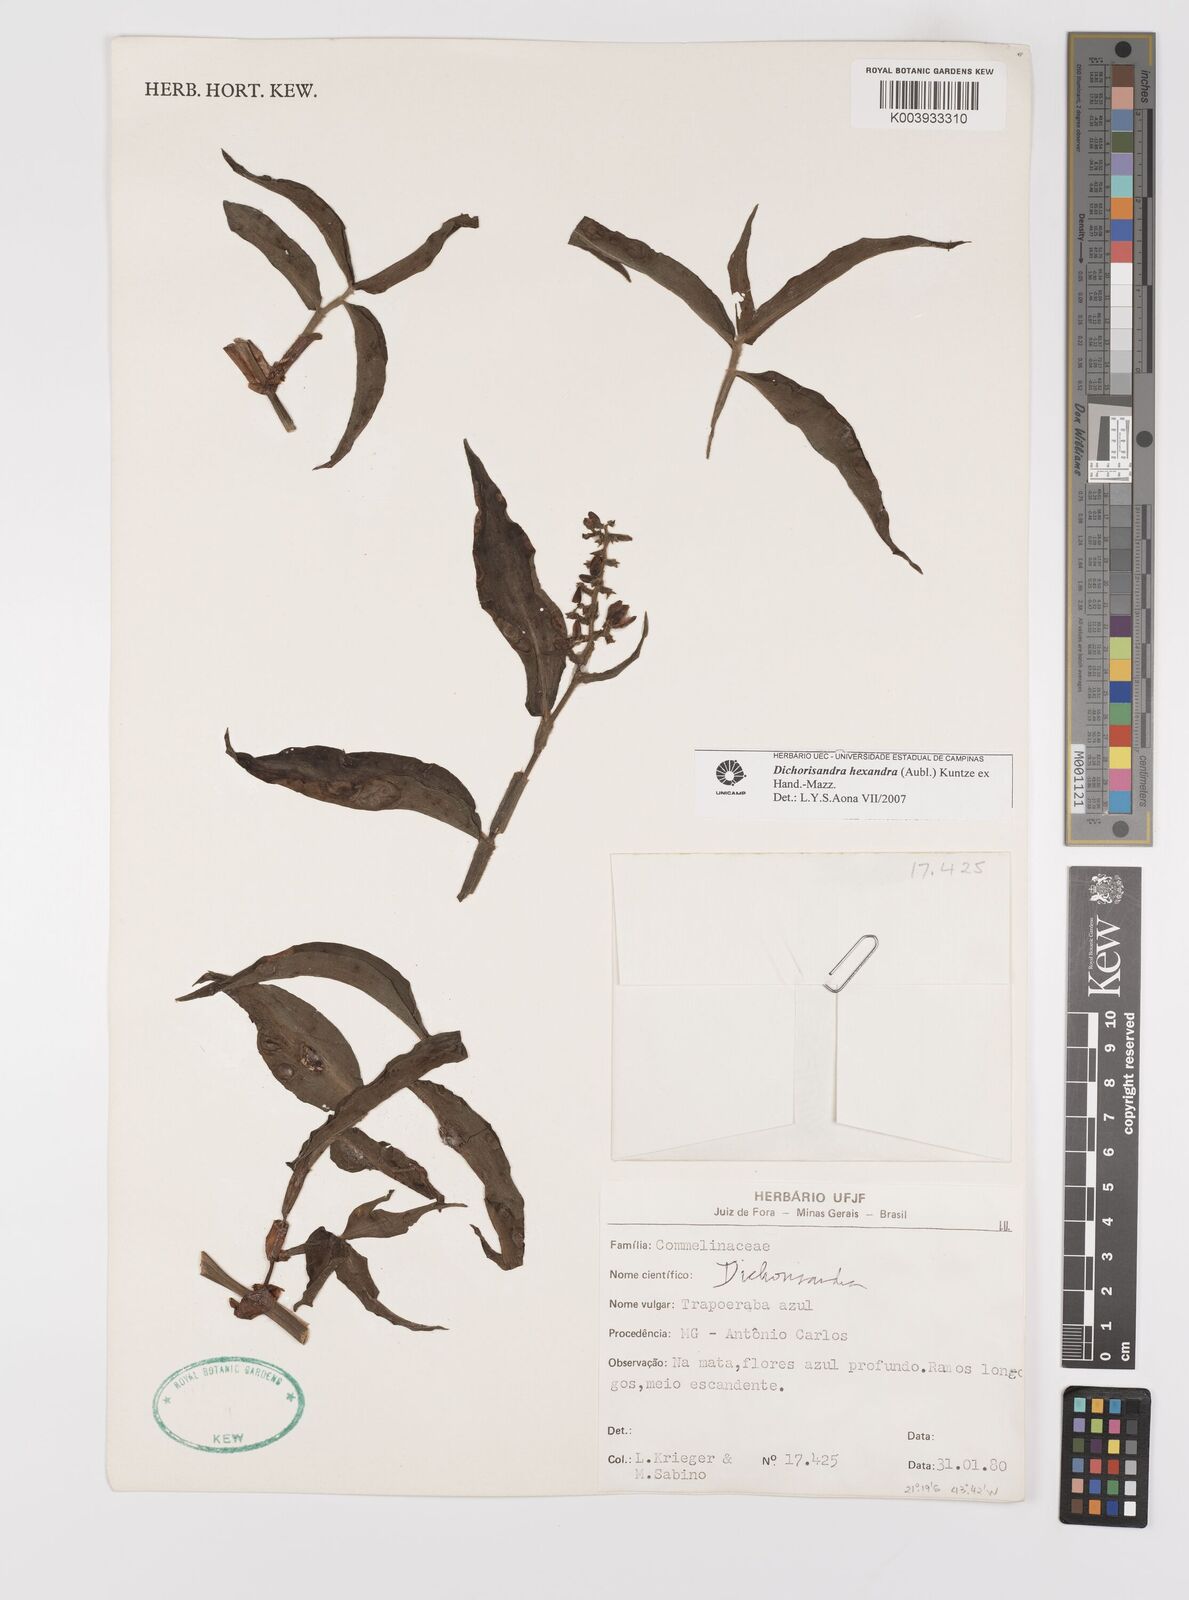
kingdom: Plantae
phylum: Tracheophyta
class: Liliopsida
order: Commelinales
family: Commelinaceae
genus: Dichorisandra
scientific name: Dichorisandra hexandra
